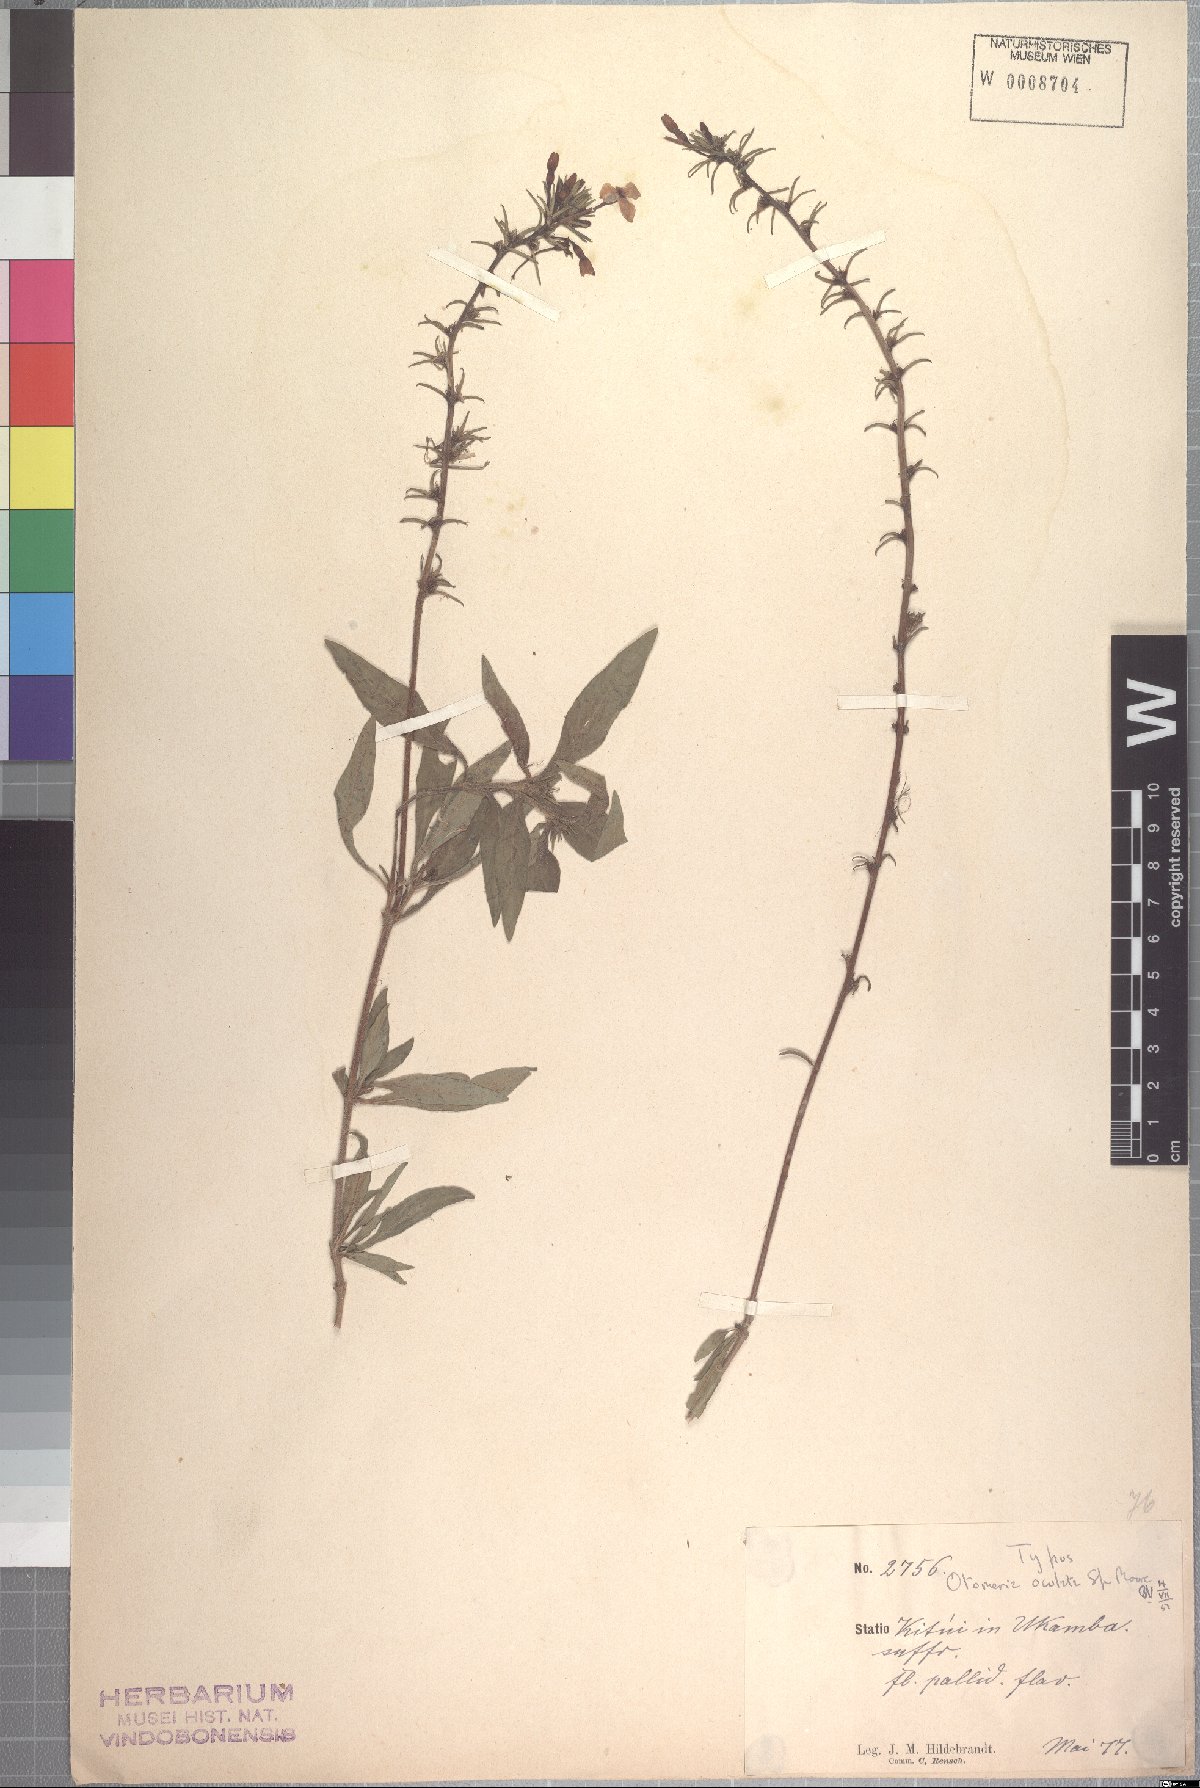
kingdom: Plantae
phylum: Tracheophyta
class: Magnoliopsida
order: Gentianales
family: Rubiaceae
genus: Otomeria
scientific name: Otomeria oculata
